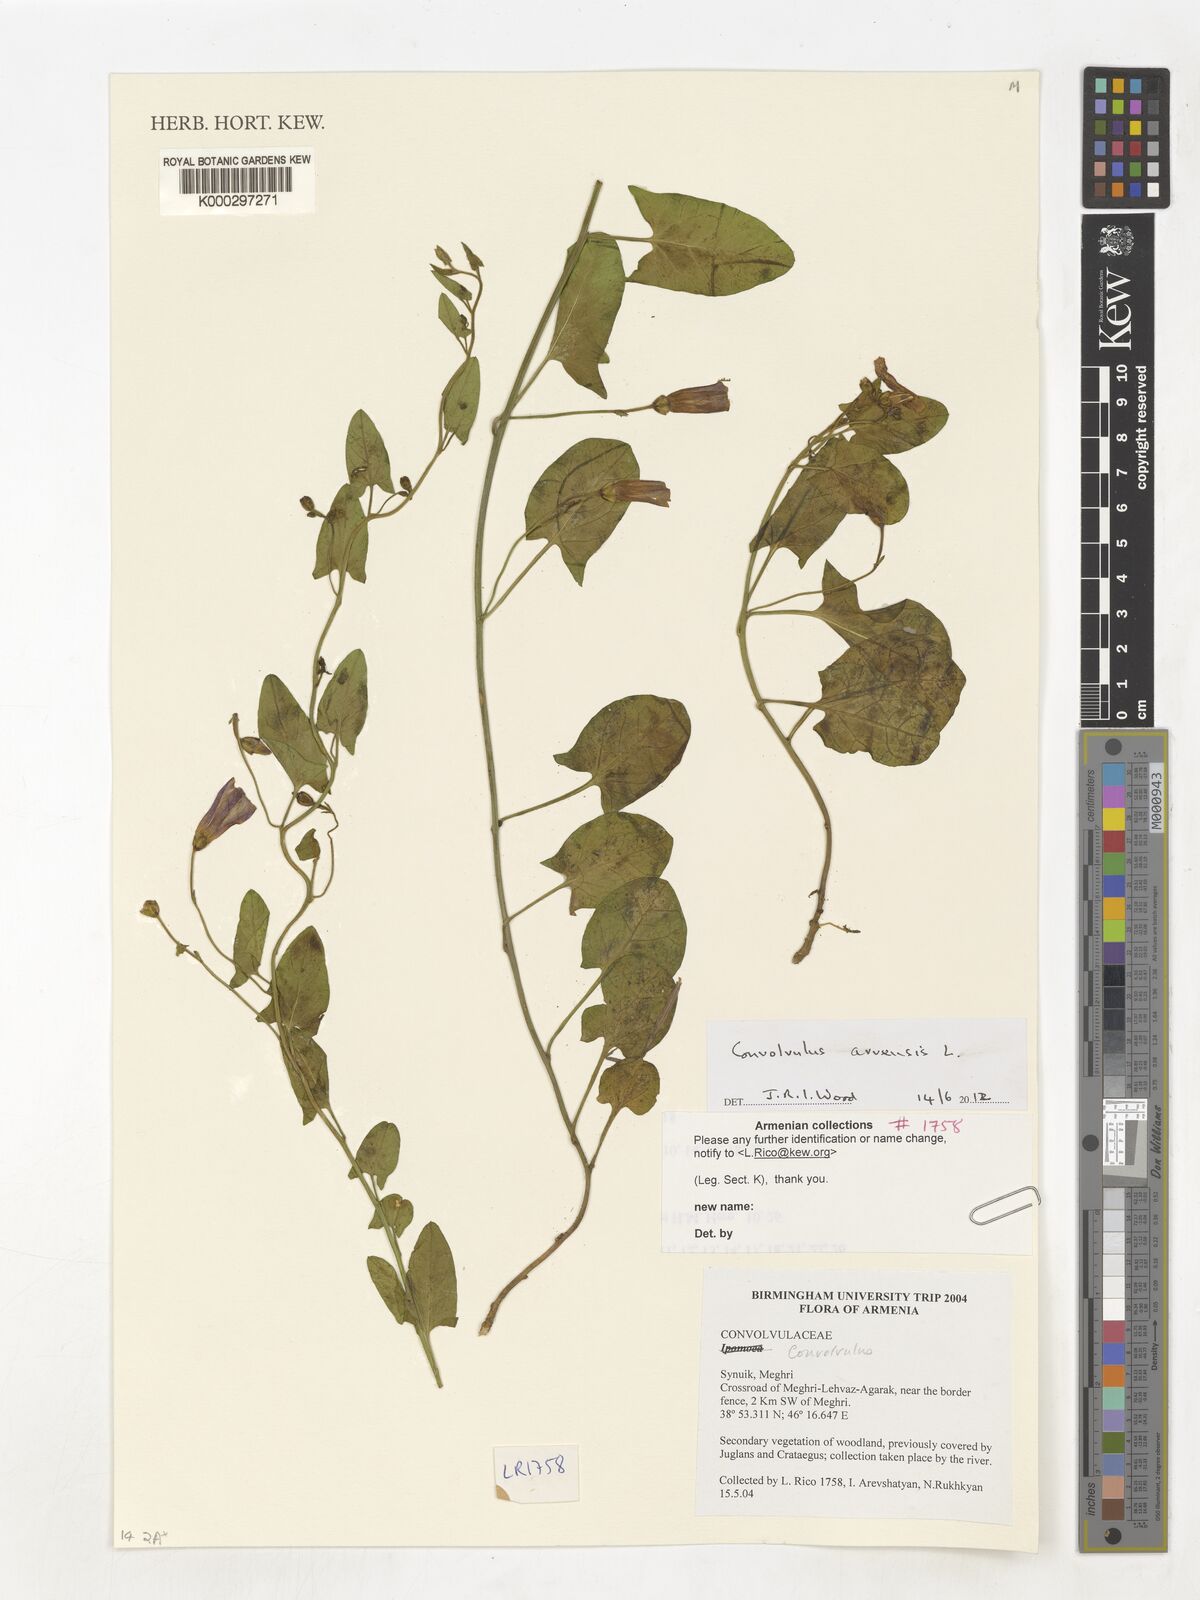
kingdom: Plantae
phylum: Tracheophyta
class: Magnoliopsida
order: Solanales
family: Convolvulaceae
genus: Convolvulus
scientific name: Convolvulus
